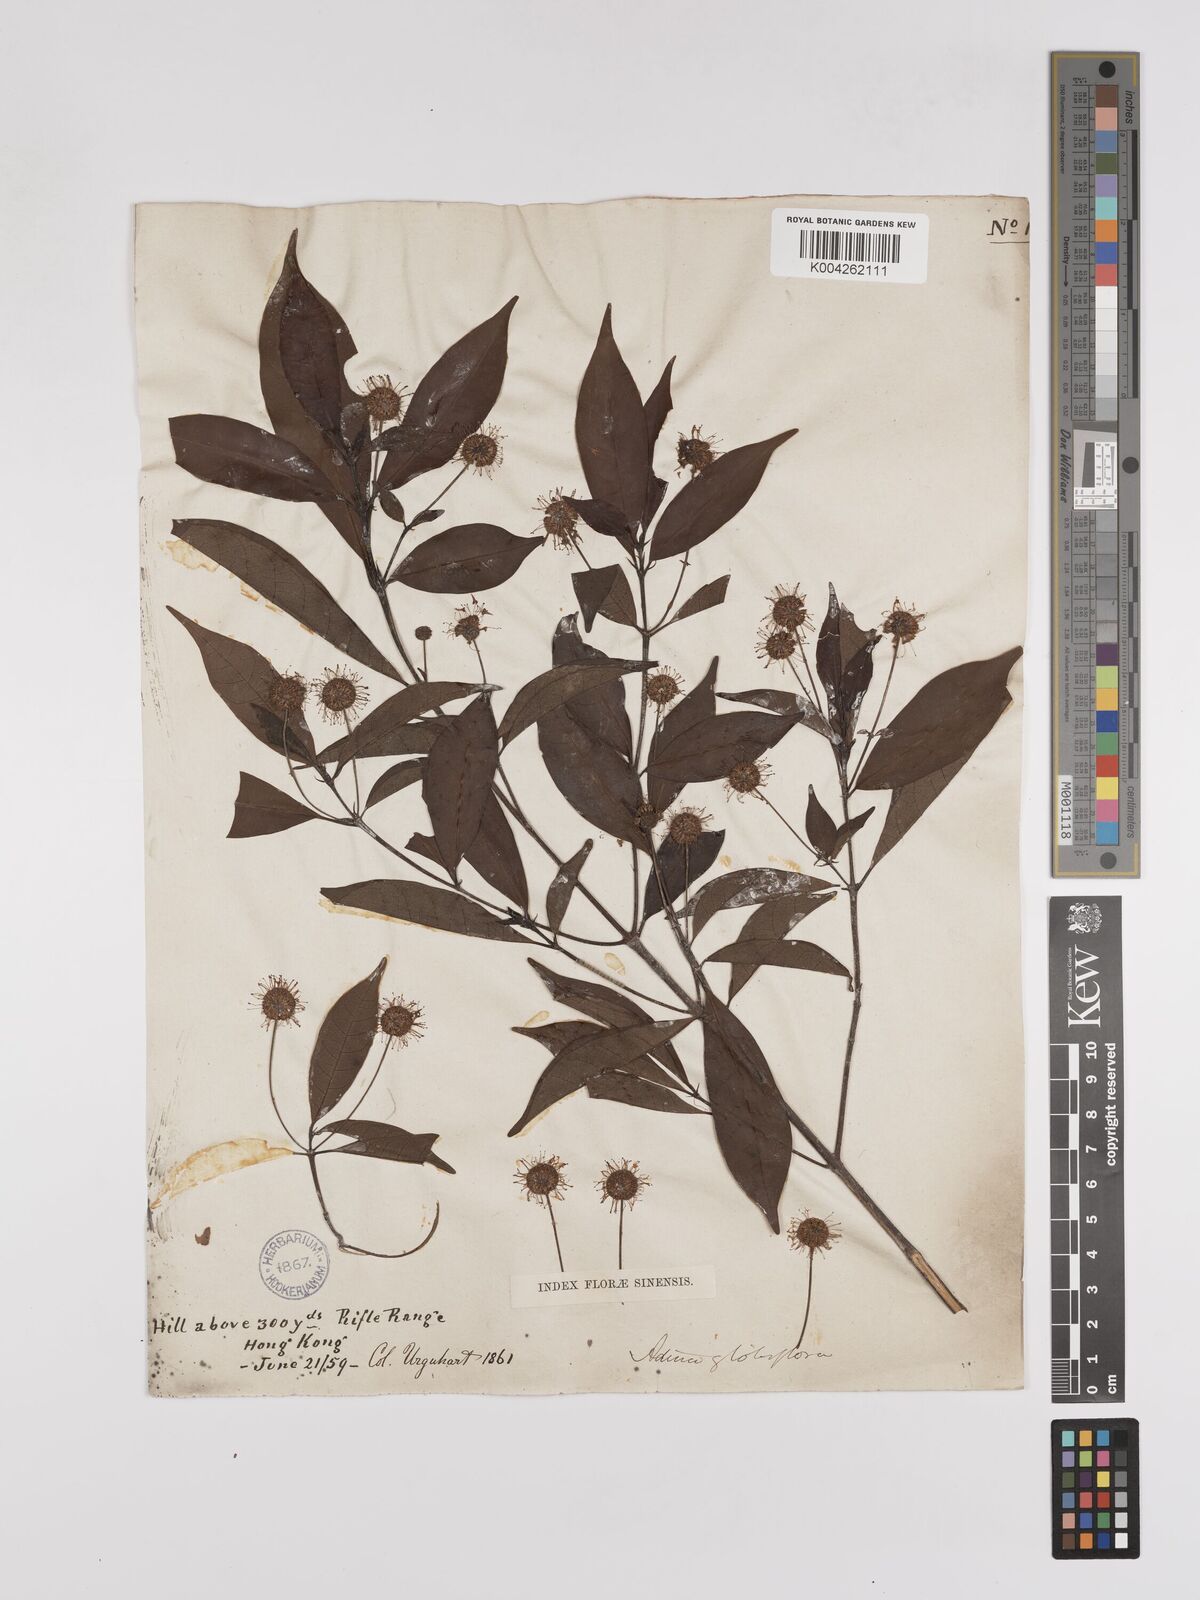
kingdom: Plantae
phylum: Tracheophyta
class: Magnoliopsida
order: Gentianales
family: Rubiaceae
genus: Adina
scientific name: Adina pilulifera
